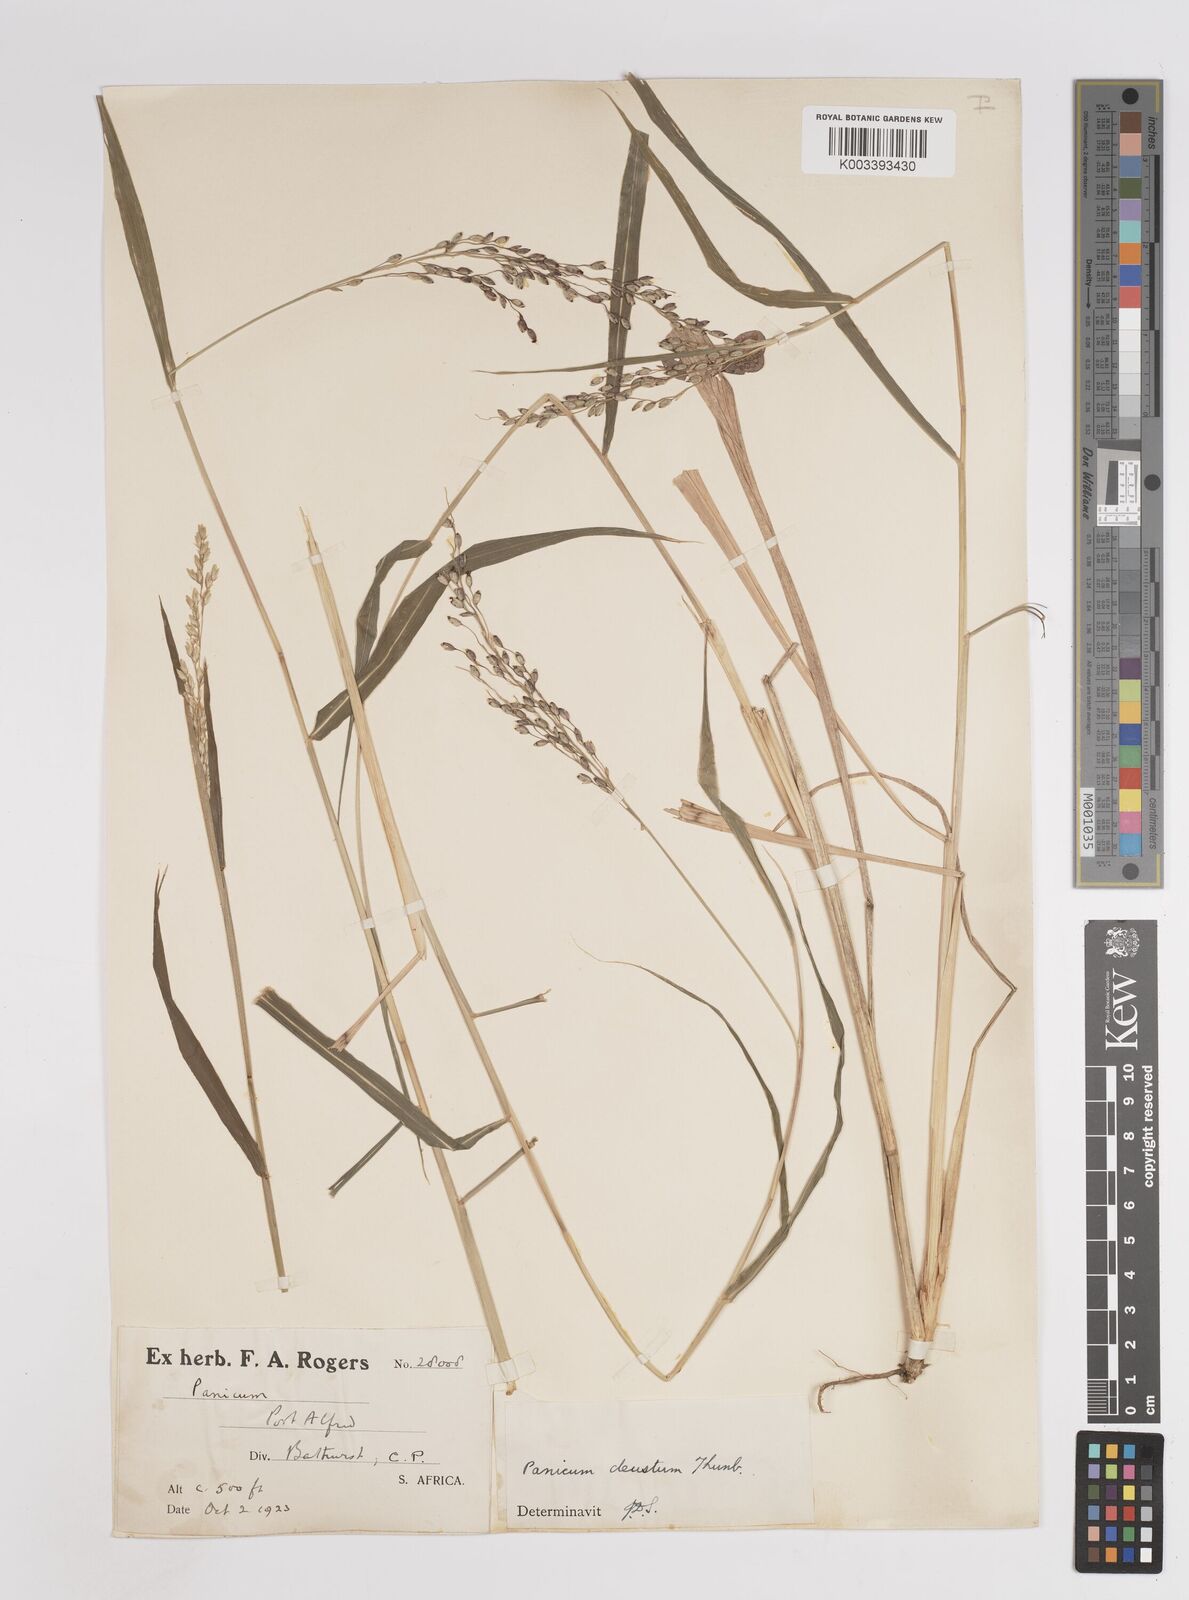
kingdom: Plantae
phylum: Tracheophyta
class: Liliopsida
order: Poales
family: Poaceae
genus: Panicum
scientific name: Panicum deustum
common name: Reed panicum
